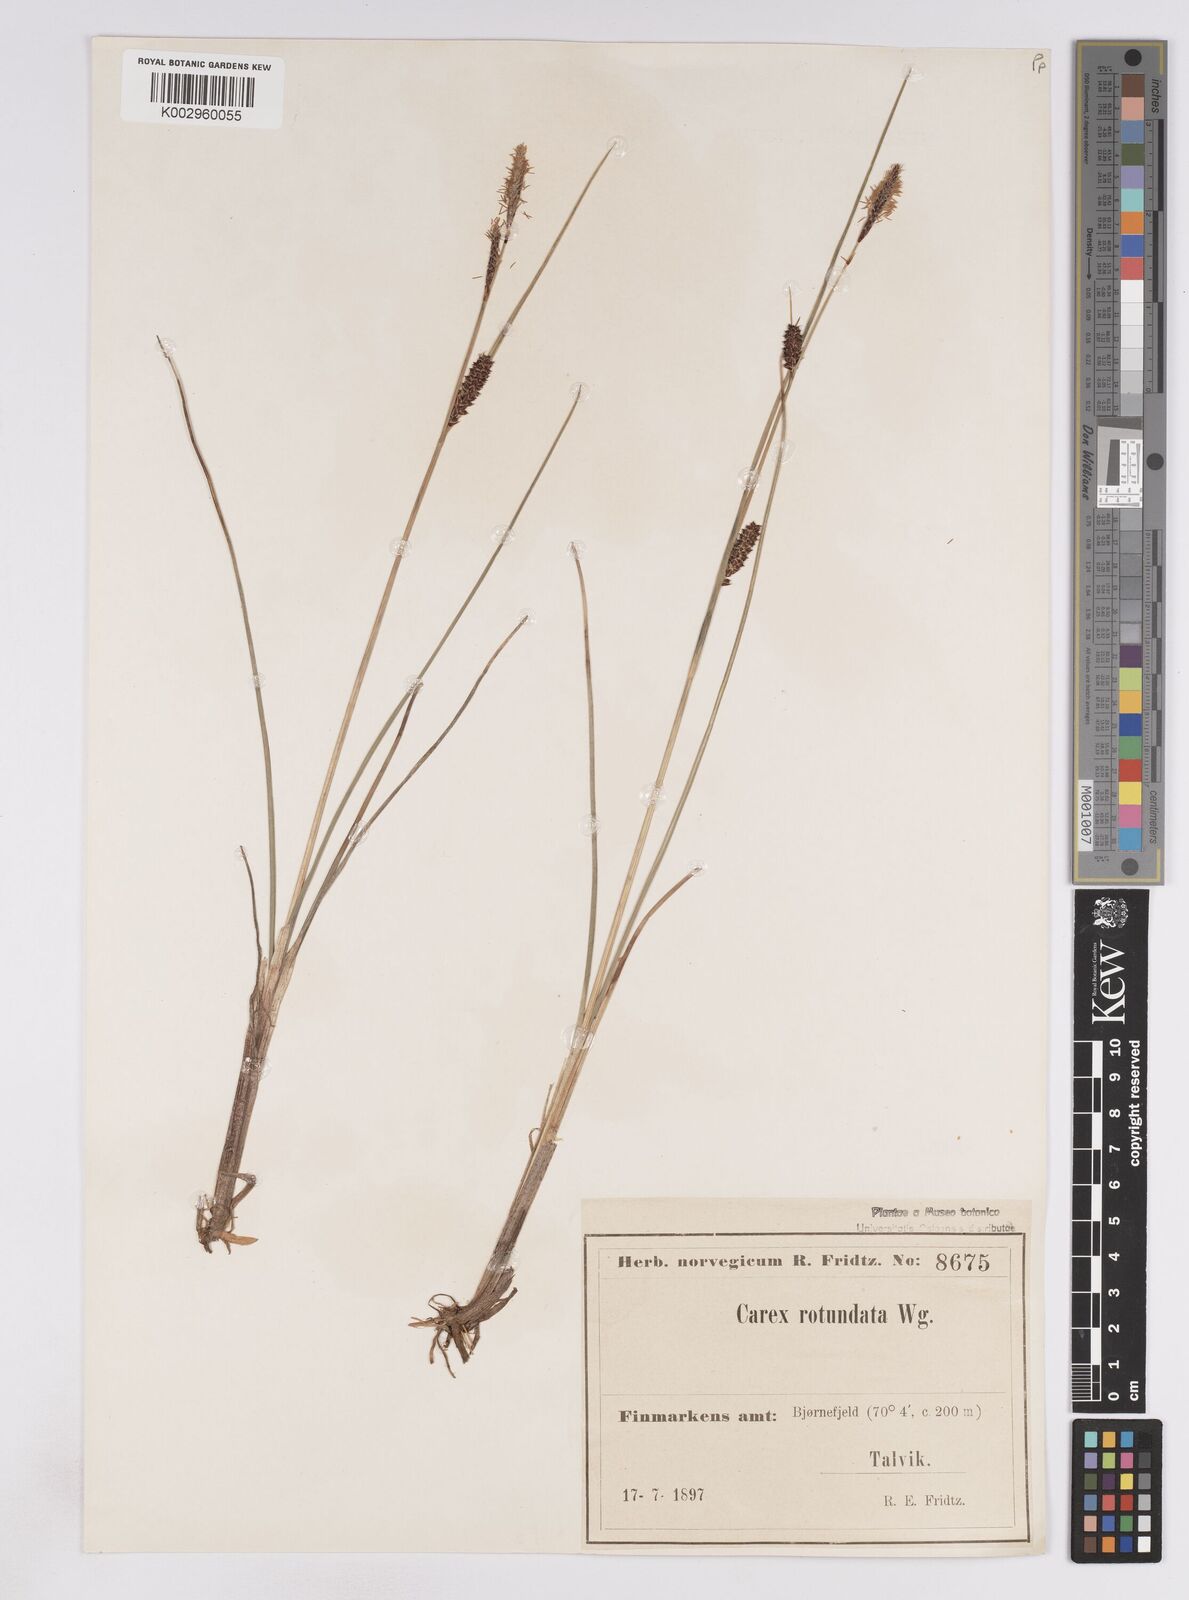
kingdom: Plantae
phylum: Tracheophyta
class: Liliopsida
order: Poales
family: Cyperaceae
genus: Carex
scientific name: Carex
